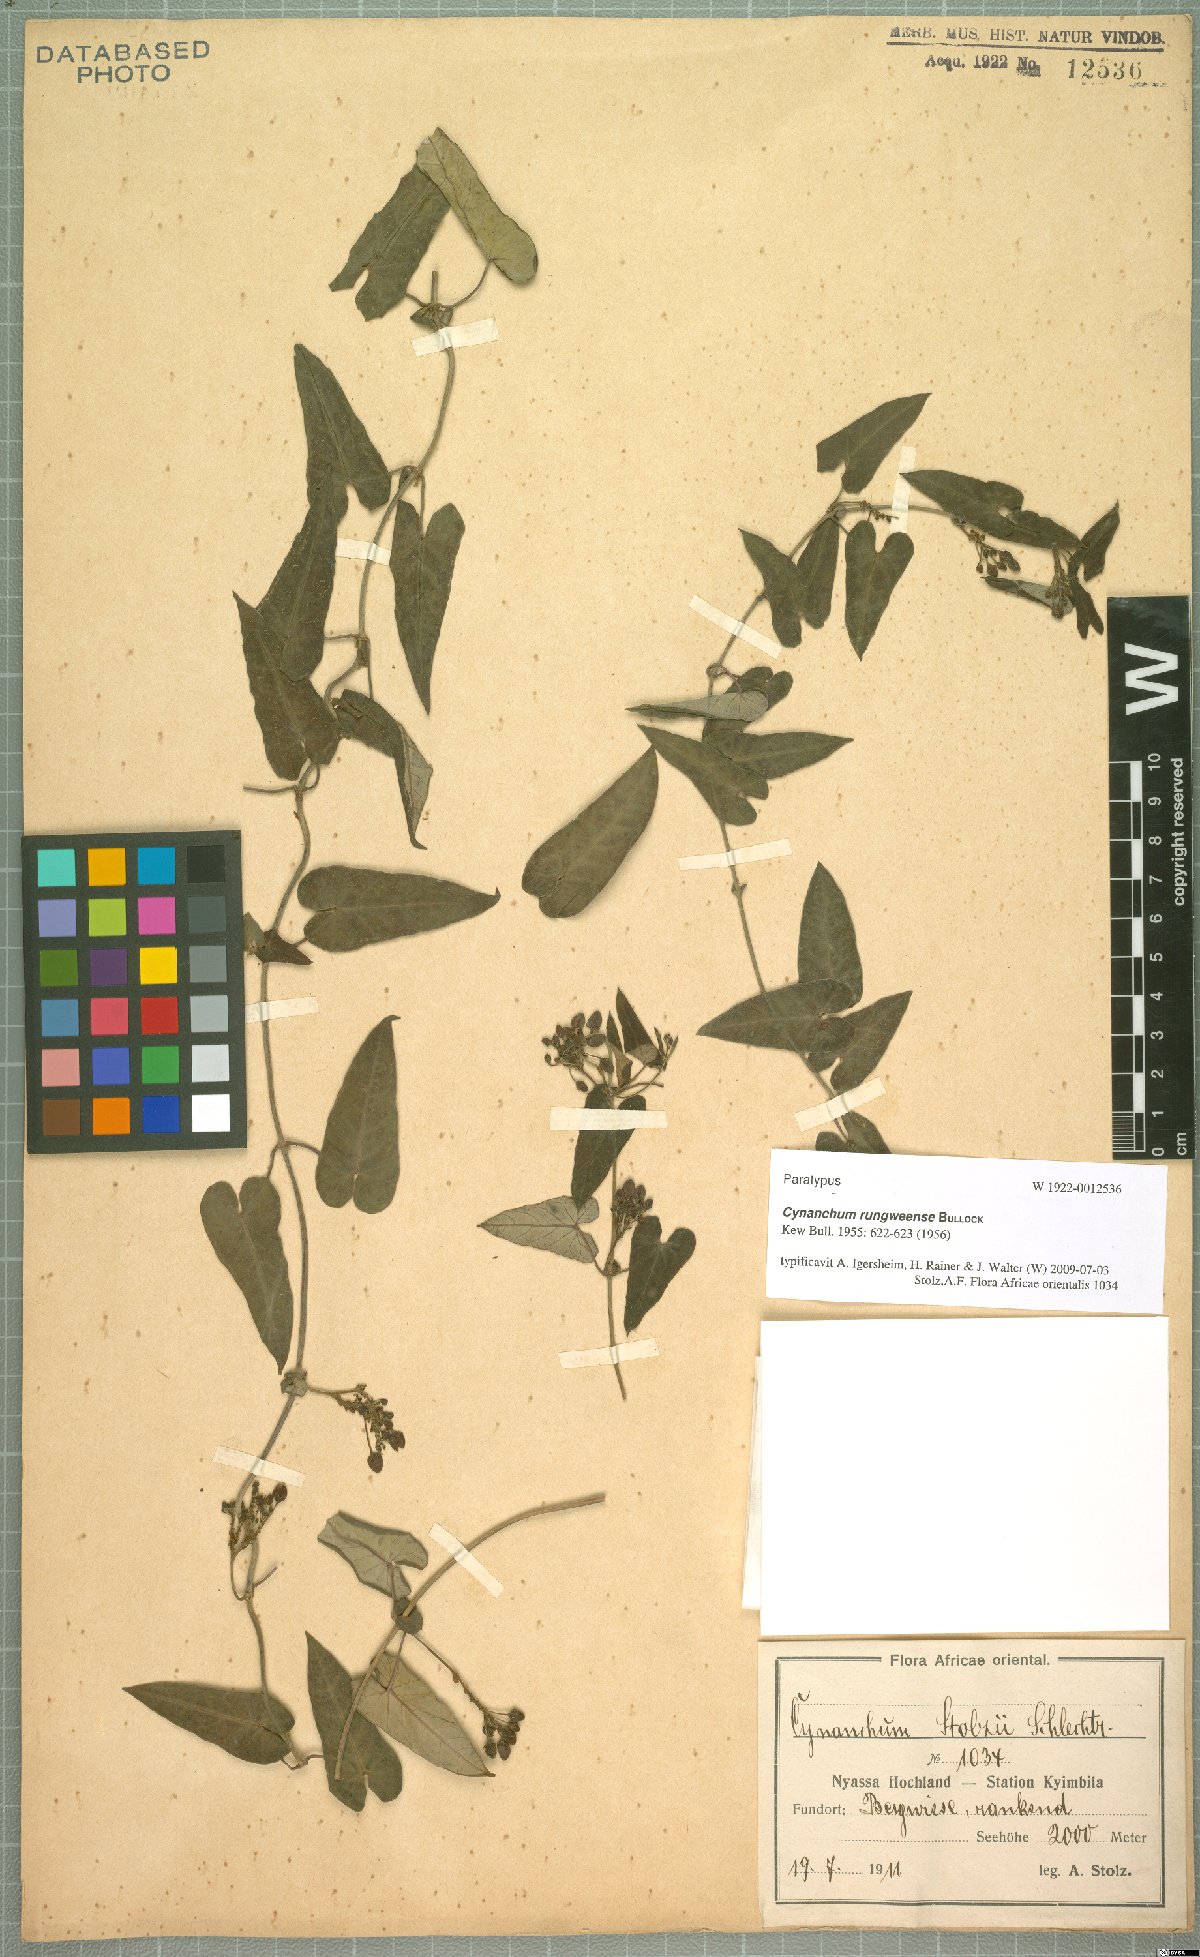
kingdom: Plantae
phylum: Tracheophyta
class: Magnoliopsida
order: Gentianales
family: Apocynaceae
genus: Cynanchum
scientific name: Cynanchum rungweense
